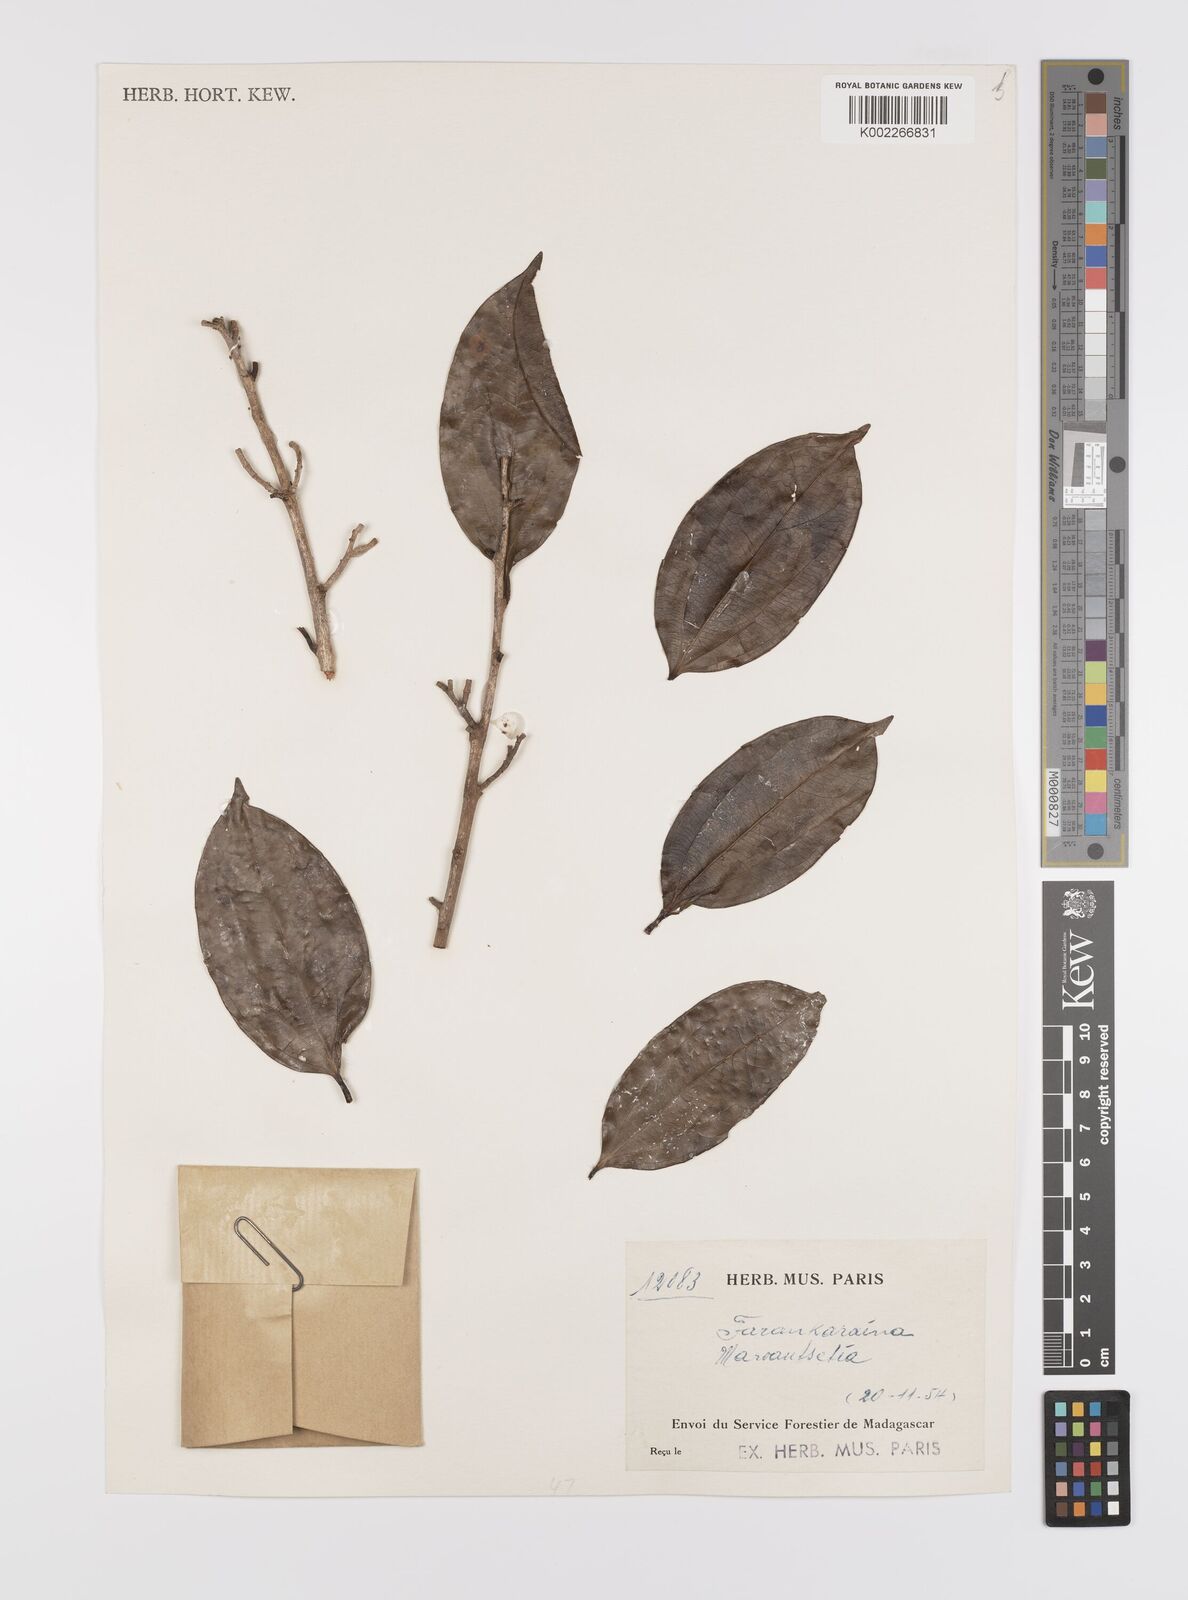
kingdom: Plantae
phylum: Tracheophyta
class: Magnoliopsida
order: Celastrales
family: Celastraceae
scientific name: Celastraceae
